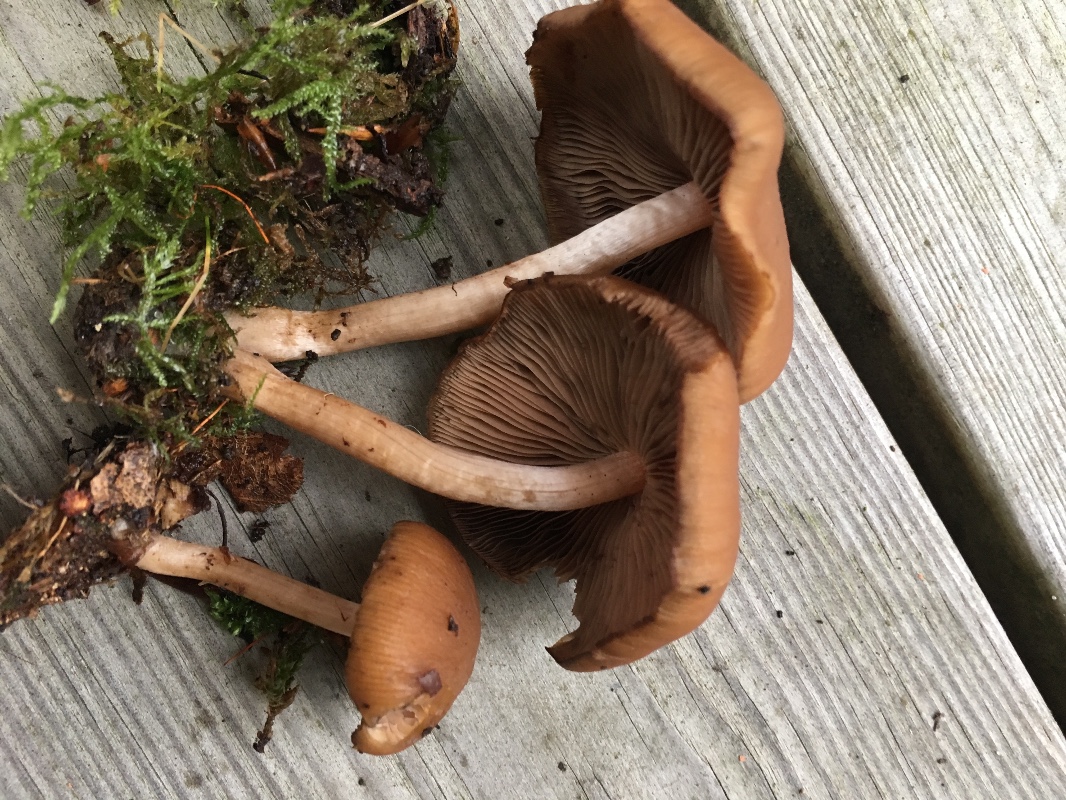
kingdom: Fungi
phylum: Basidiomycota
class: Agaricomycetes
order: Agaricales
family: Psathyrellaceae
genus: Psathyrella
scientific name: Psathyrella piluliformis
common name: lysstokket mørkhat
